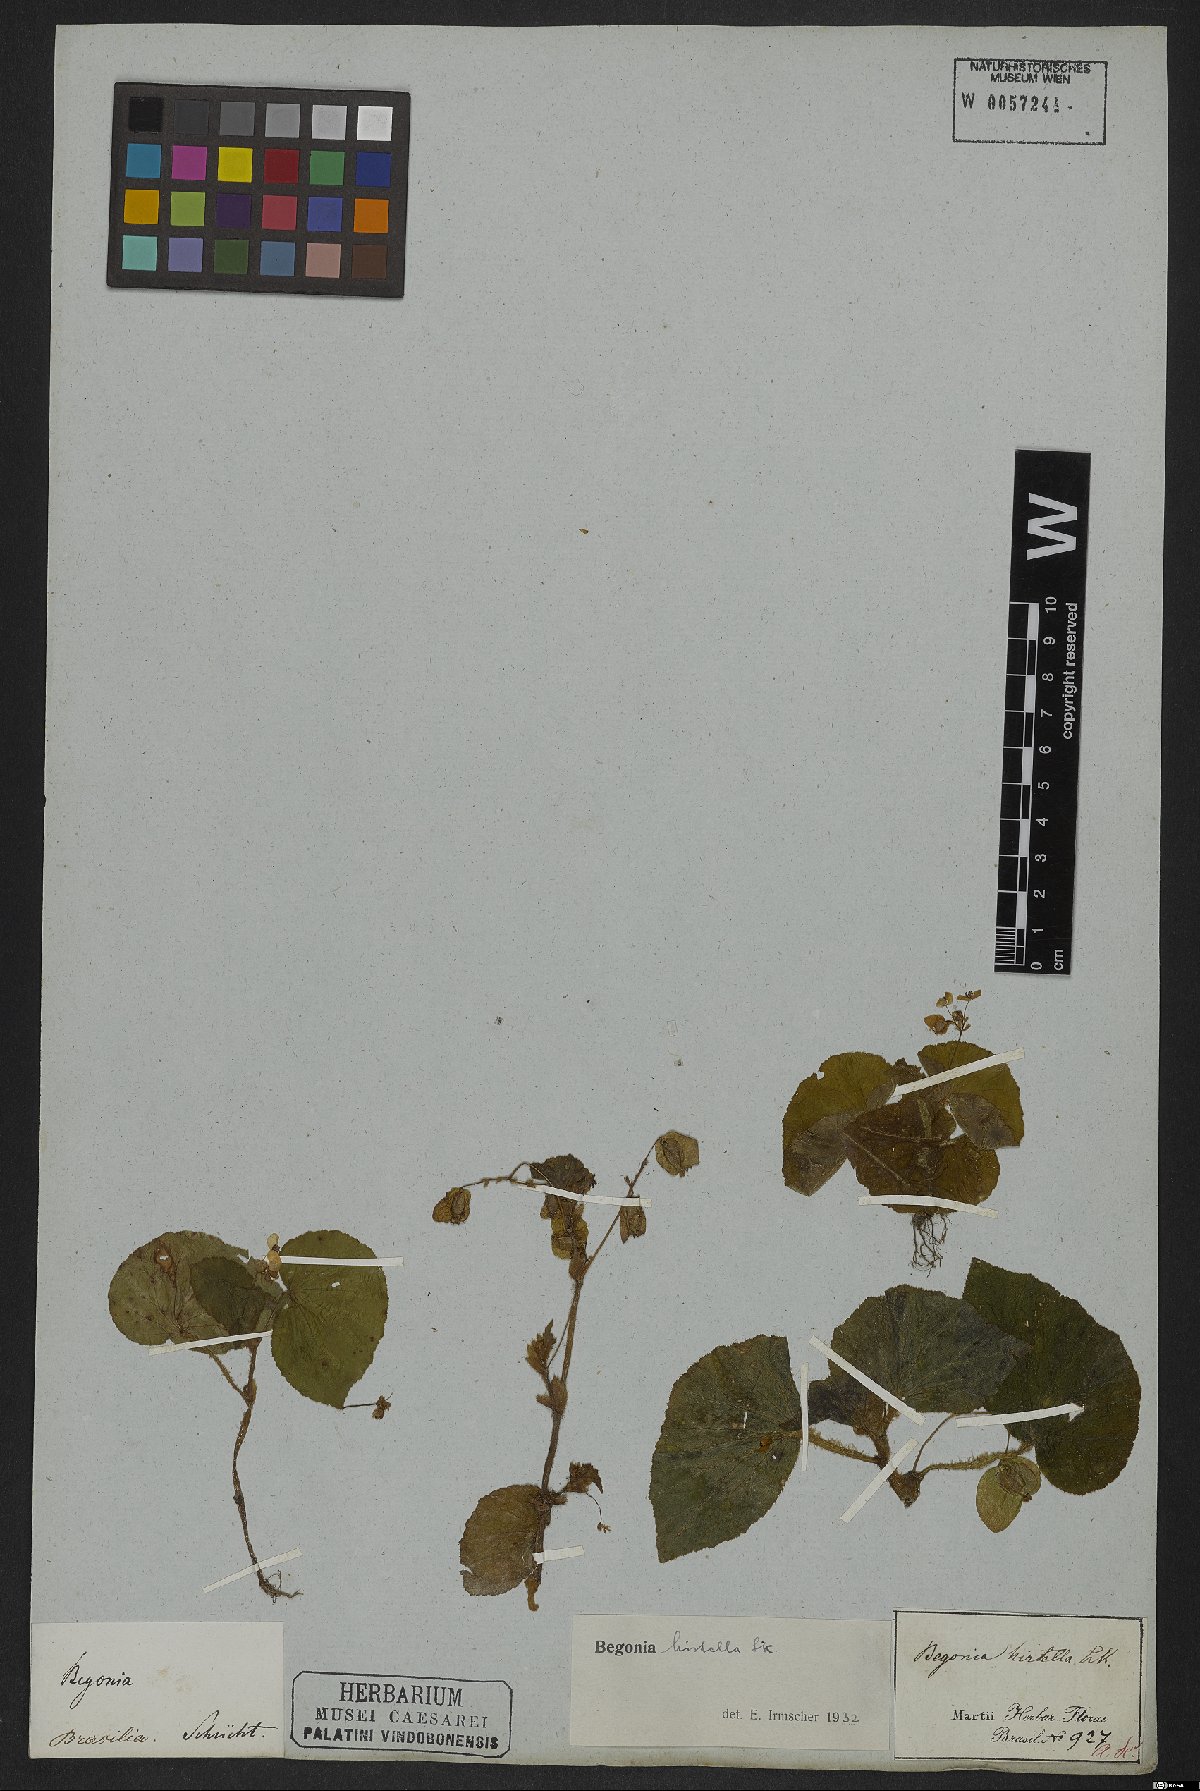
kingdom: Plantae
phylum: Tracheophyta
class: Magnoliopsida
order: Cucurbitales
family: Begoniaceae
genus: Begonia
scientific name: Begonia hirtella
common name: Brazilian begonia
